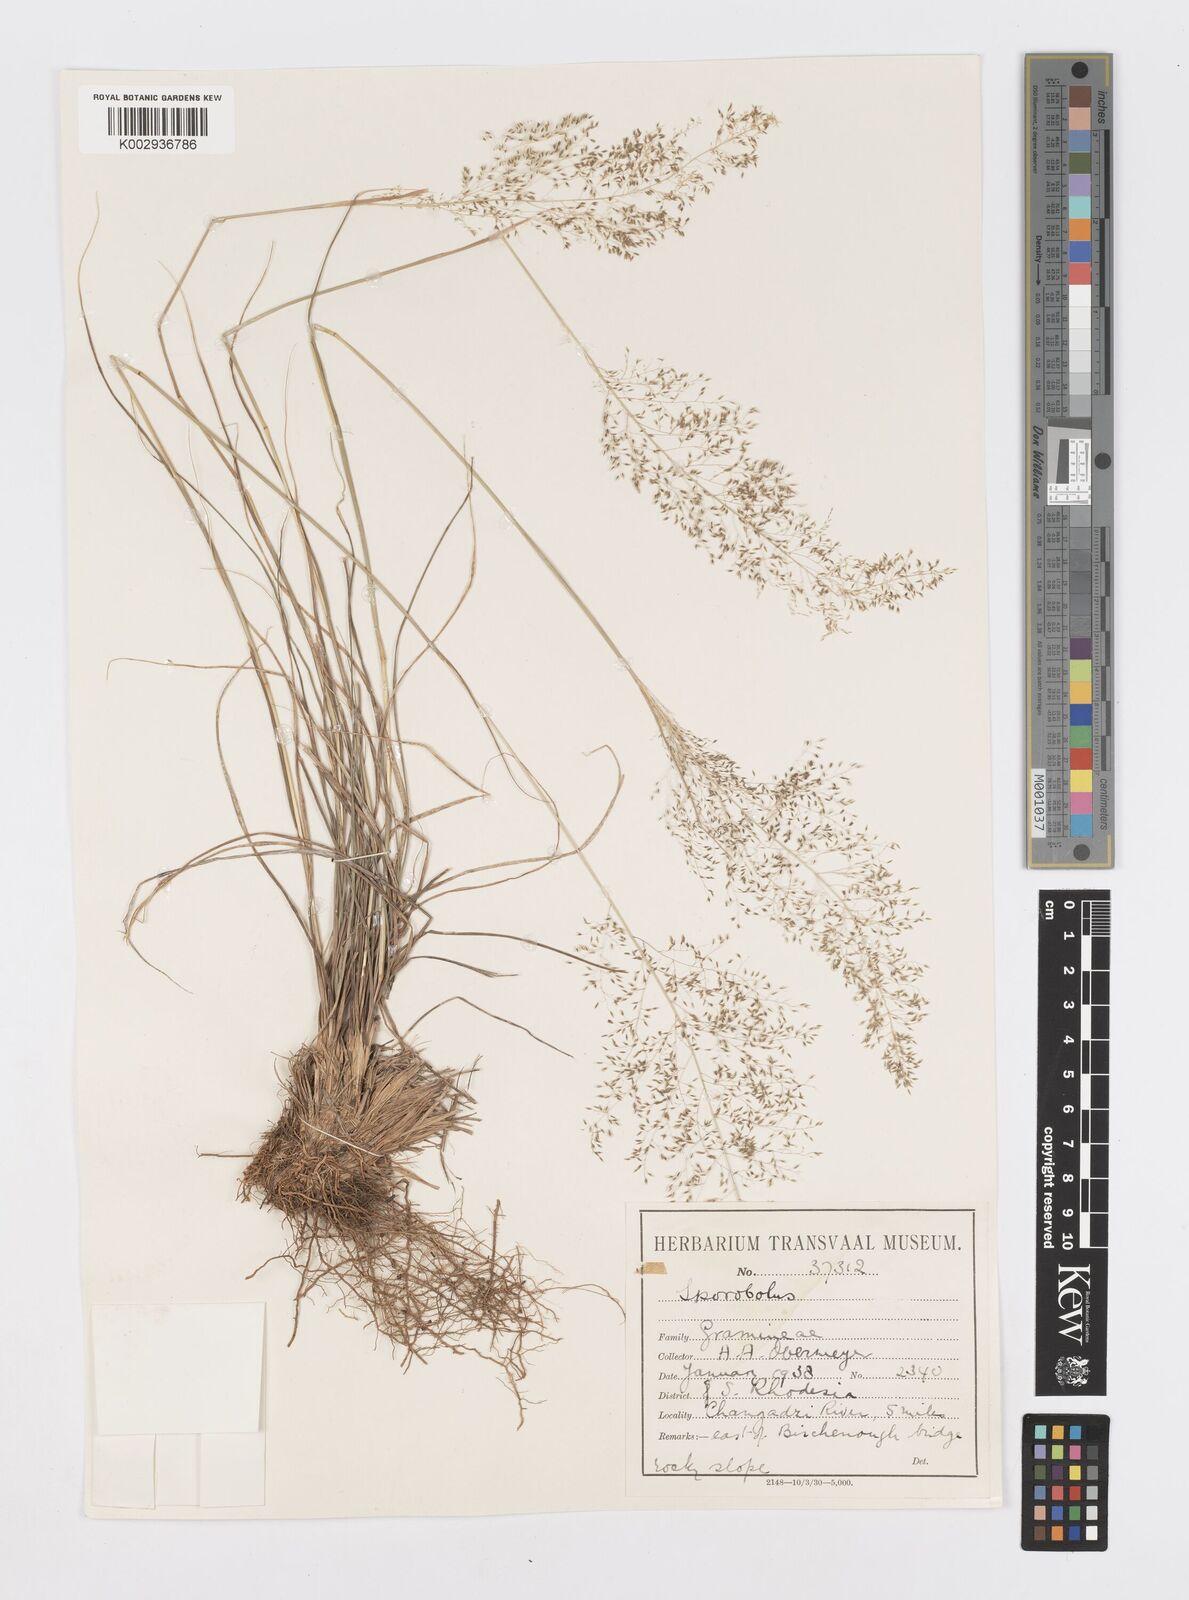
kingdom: Plantae
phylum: Tracheophyta
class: Liliopsida
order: Poales
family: Poaceae
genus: Sporobolus
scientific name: Sporobolus pyramidalis
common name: West indian dropseed
